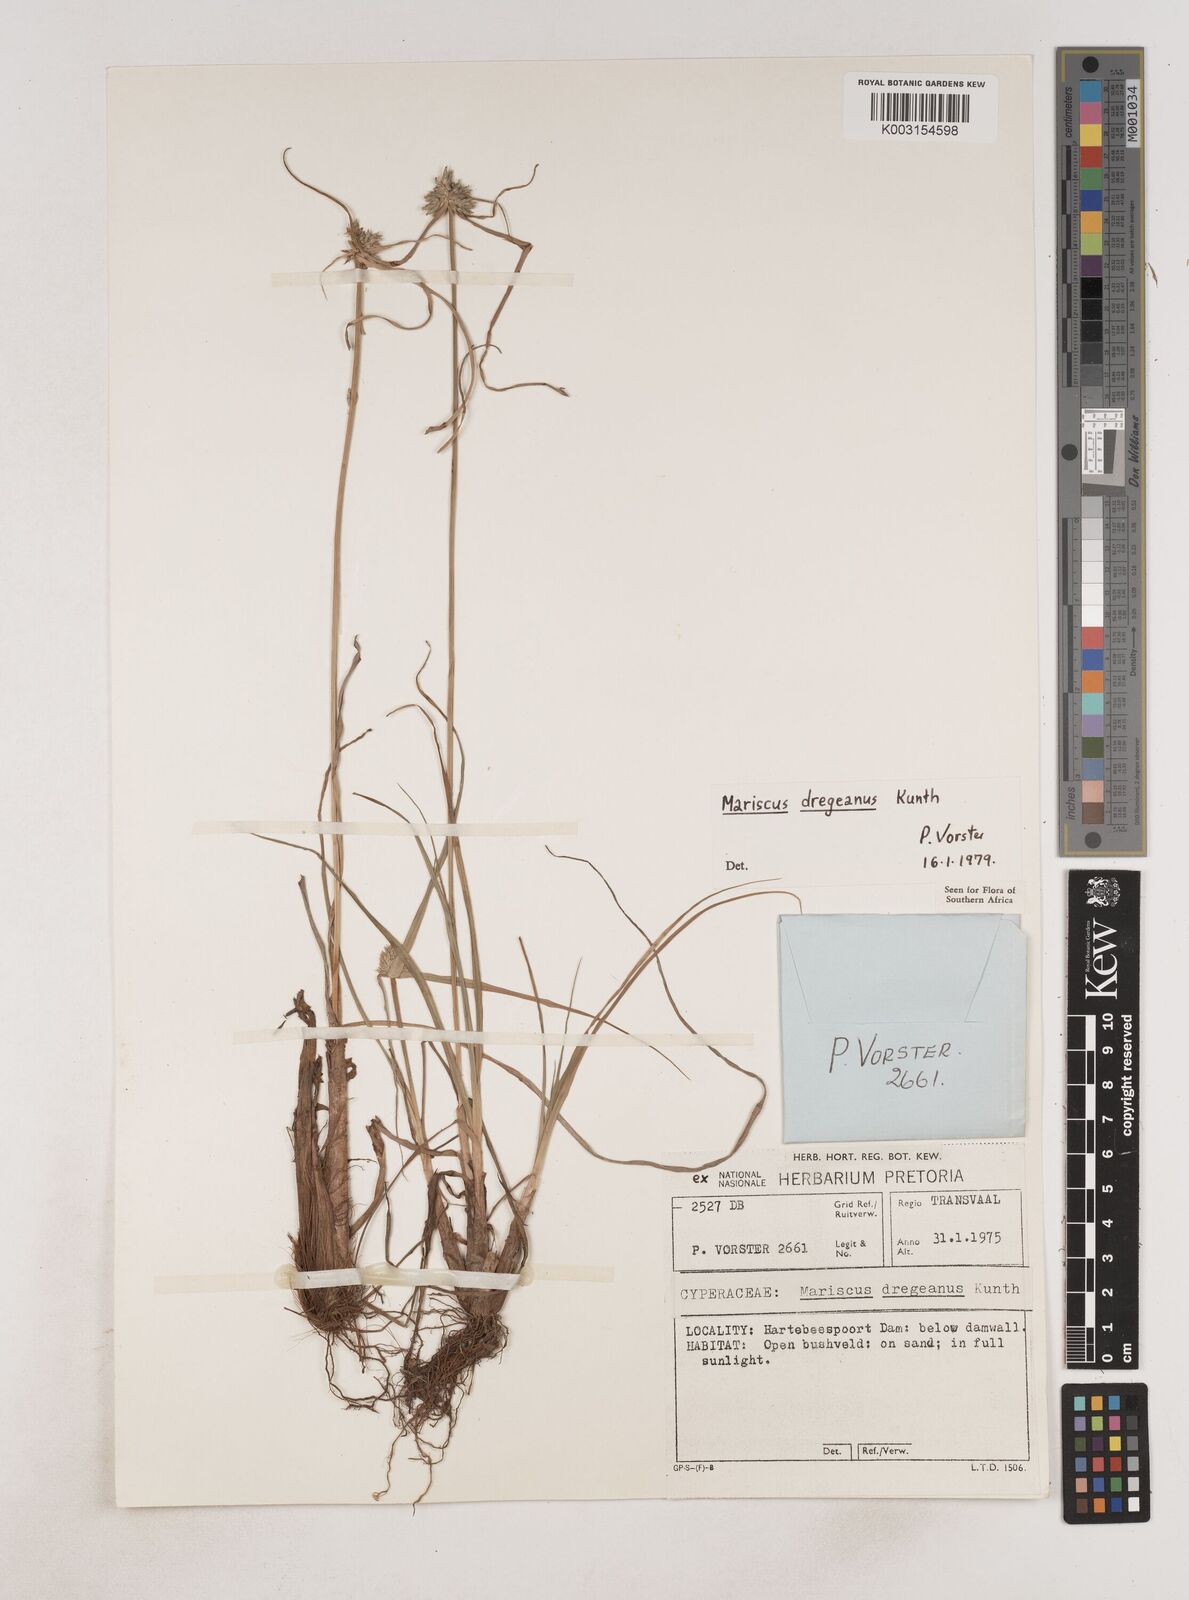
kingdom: Plantae
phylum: Tracheophyta
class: Liliopsida
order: Poales
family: Cyperaceae
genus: Cyperus
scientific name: Cyperus dubius
